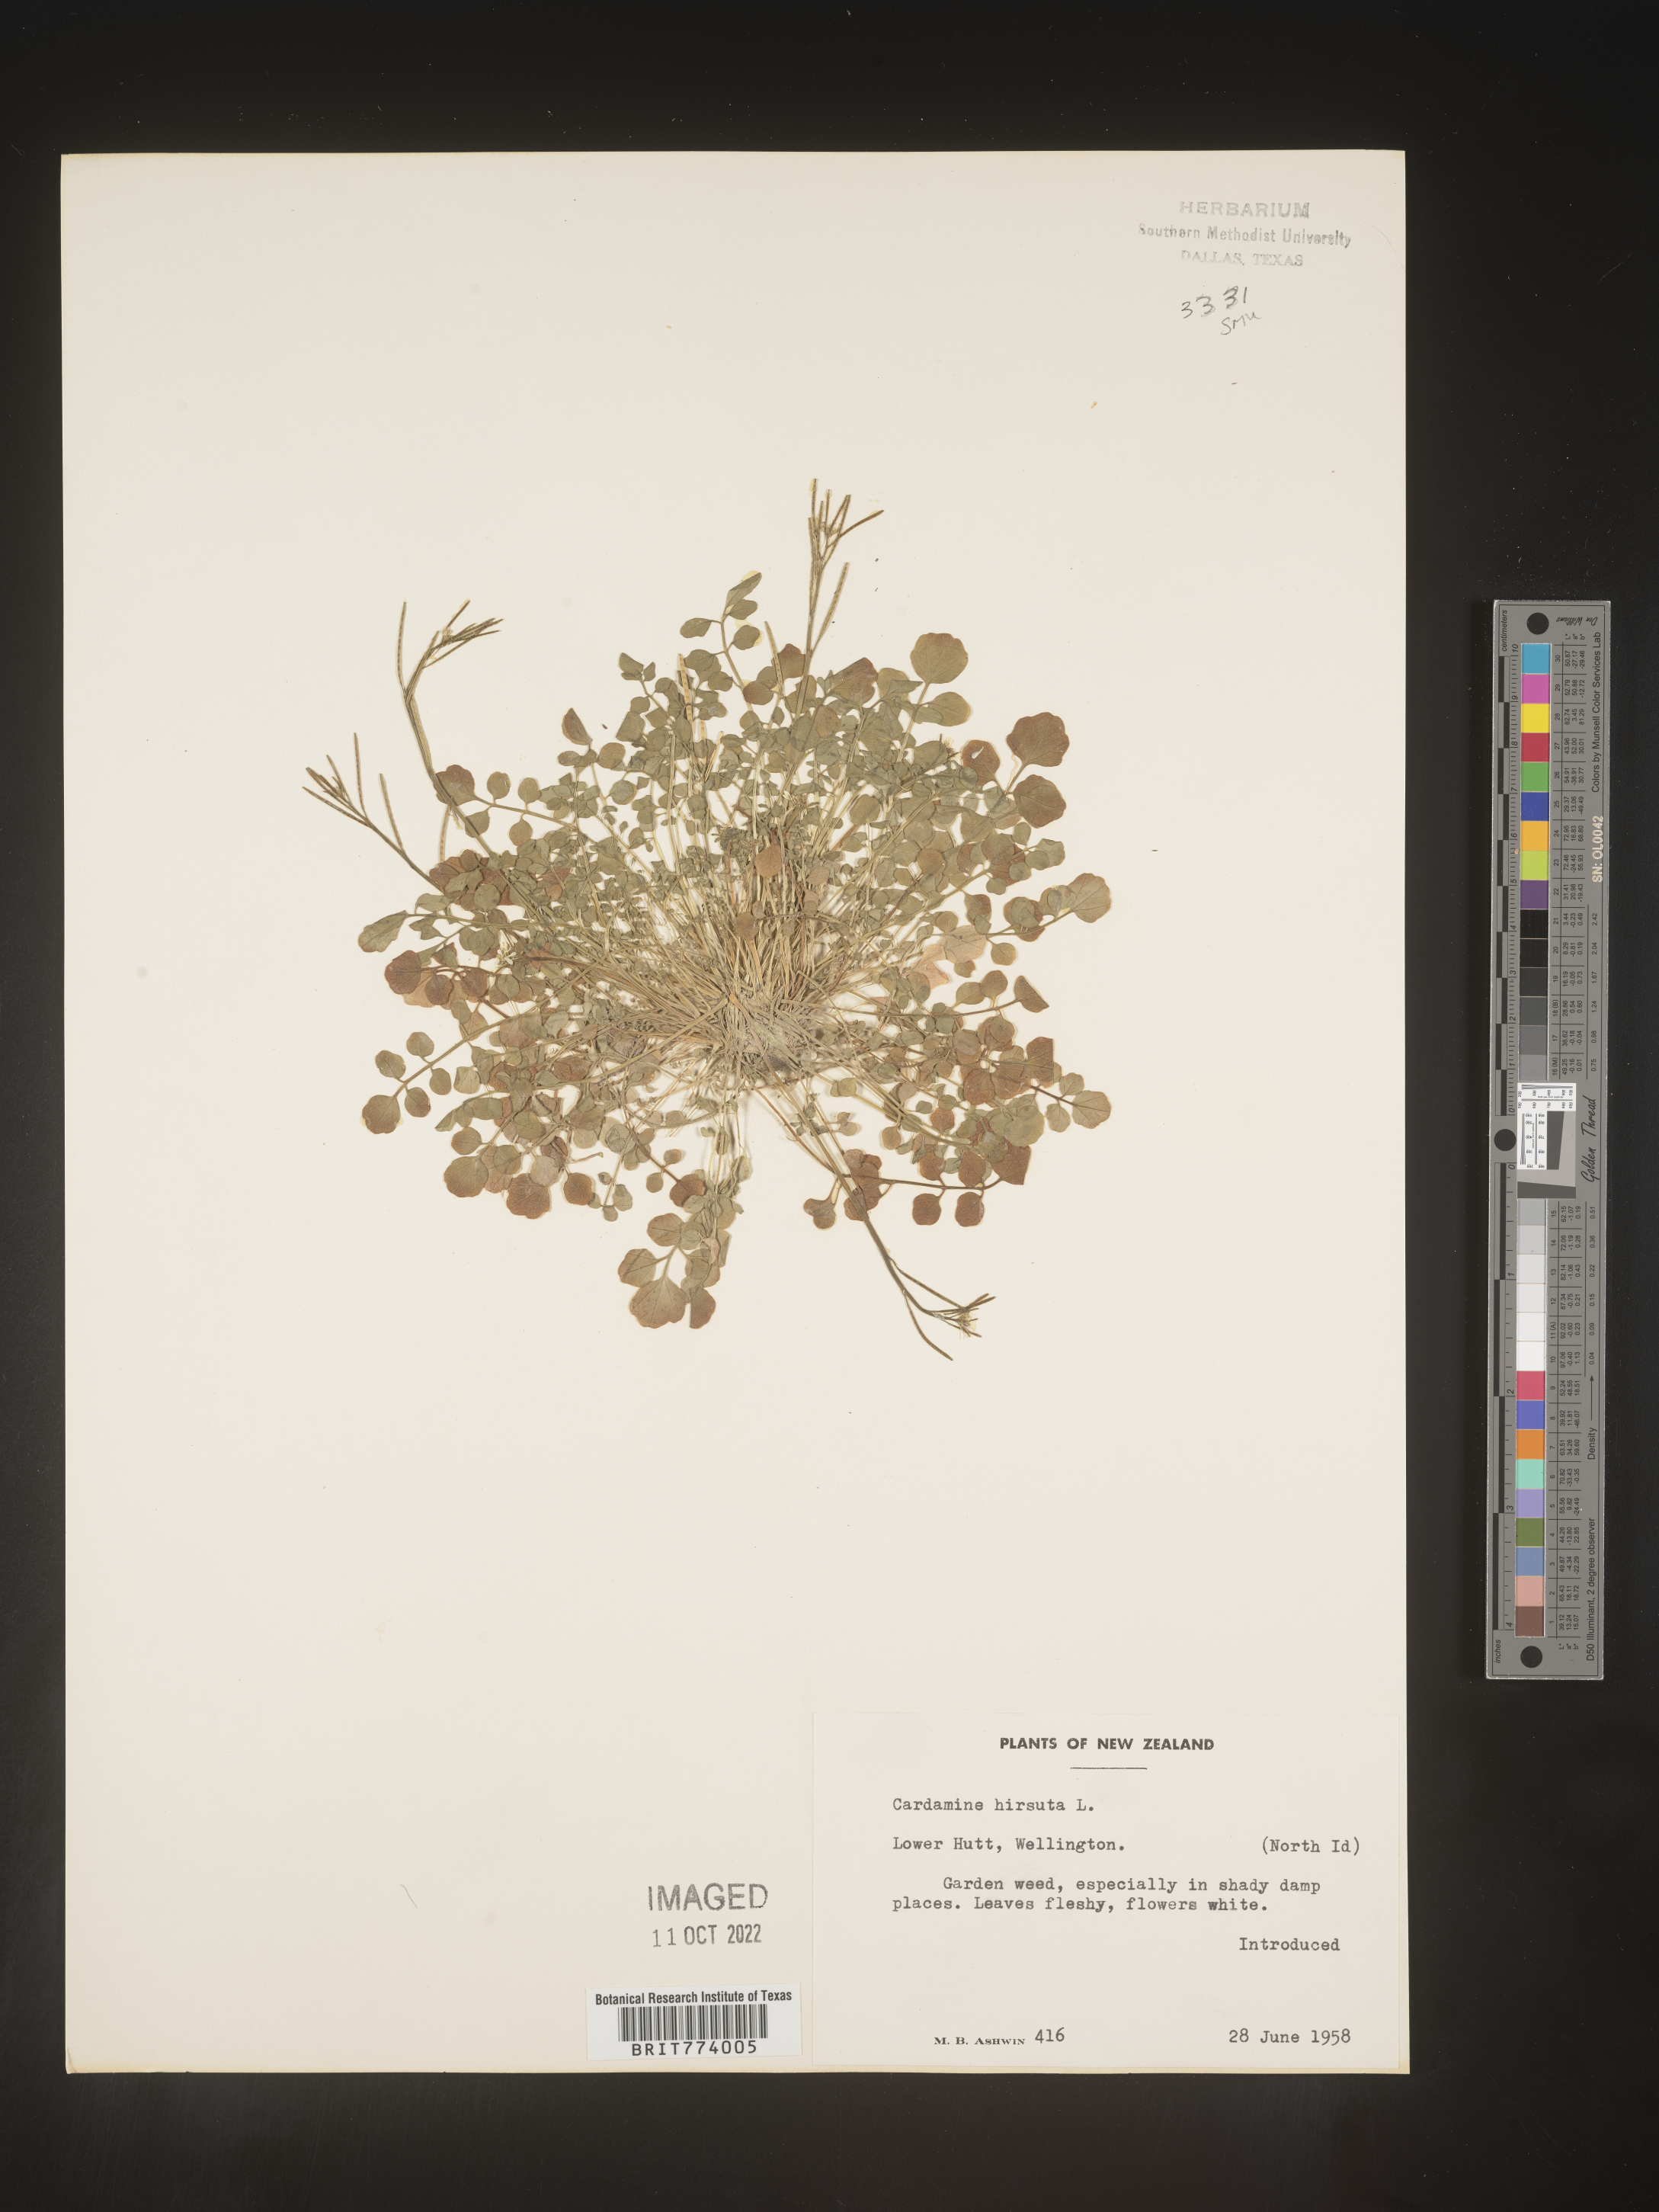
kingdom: Plantae
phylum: Tracheophyta
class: Magnoliopsida
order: Brassicales
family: Brassicaceae
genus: Cardamine
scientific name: Cardamine
